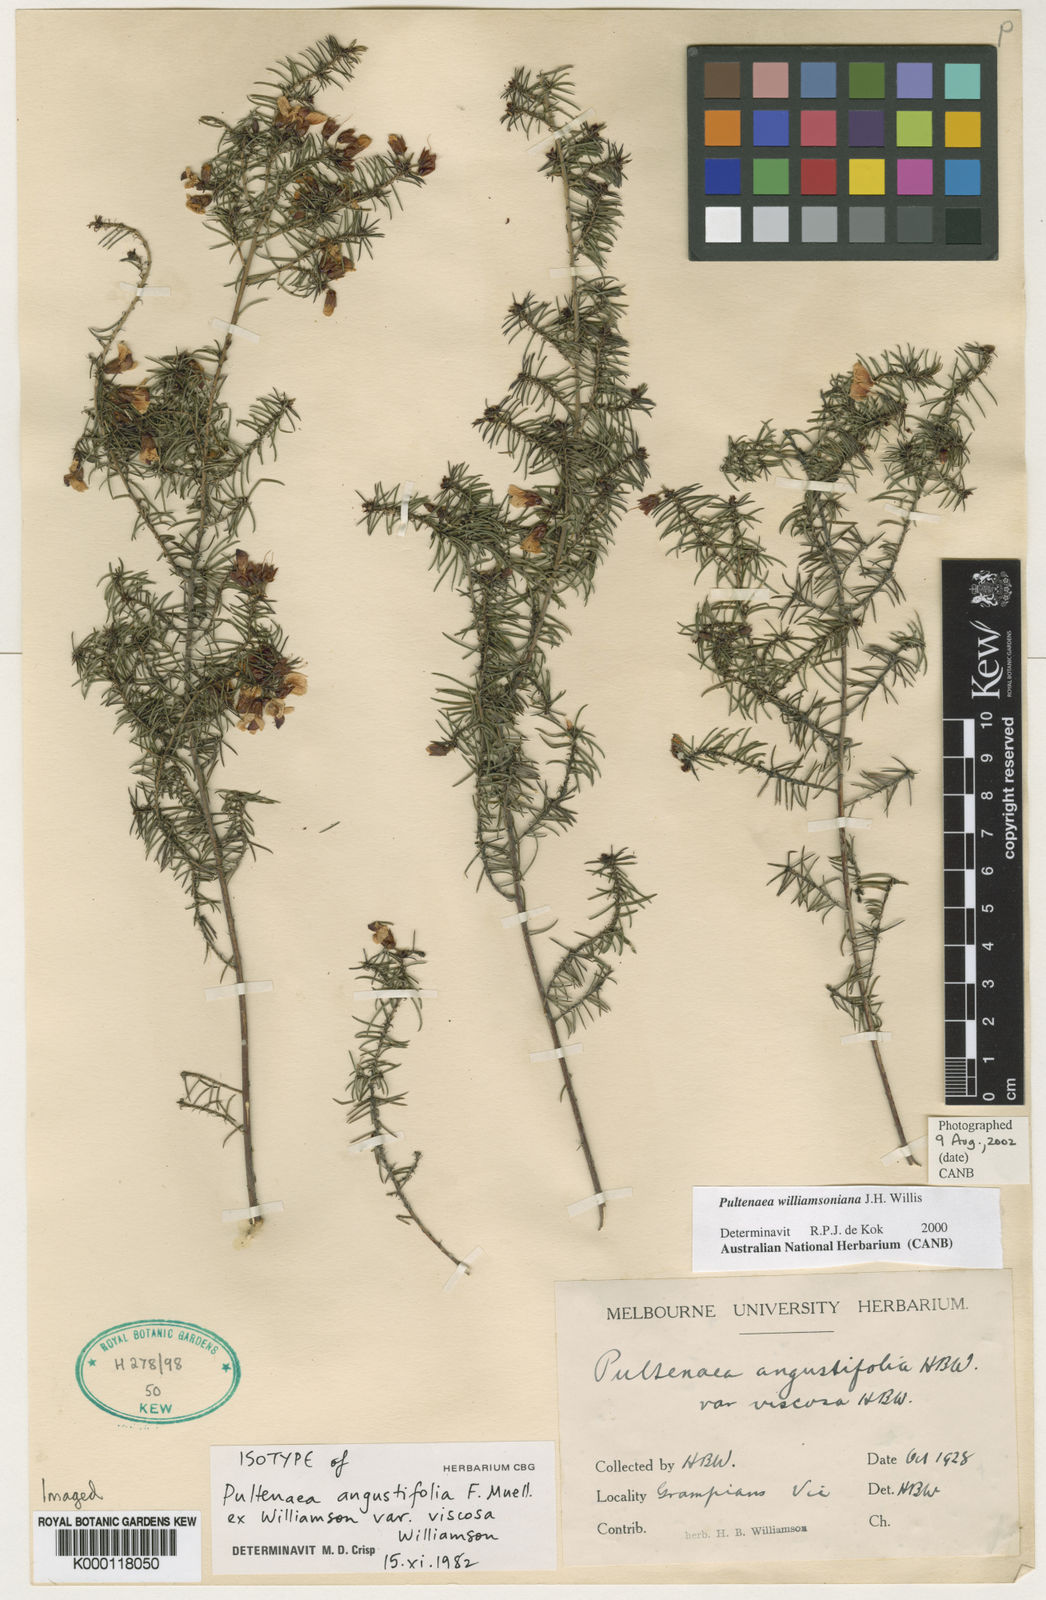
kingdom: Plantae
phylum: Tracheophyta
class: Magnoliopsida
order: Fabales
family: Fabaceae
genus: Pultenaea
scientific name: Pultenaea williamsoniana
